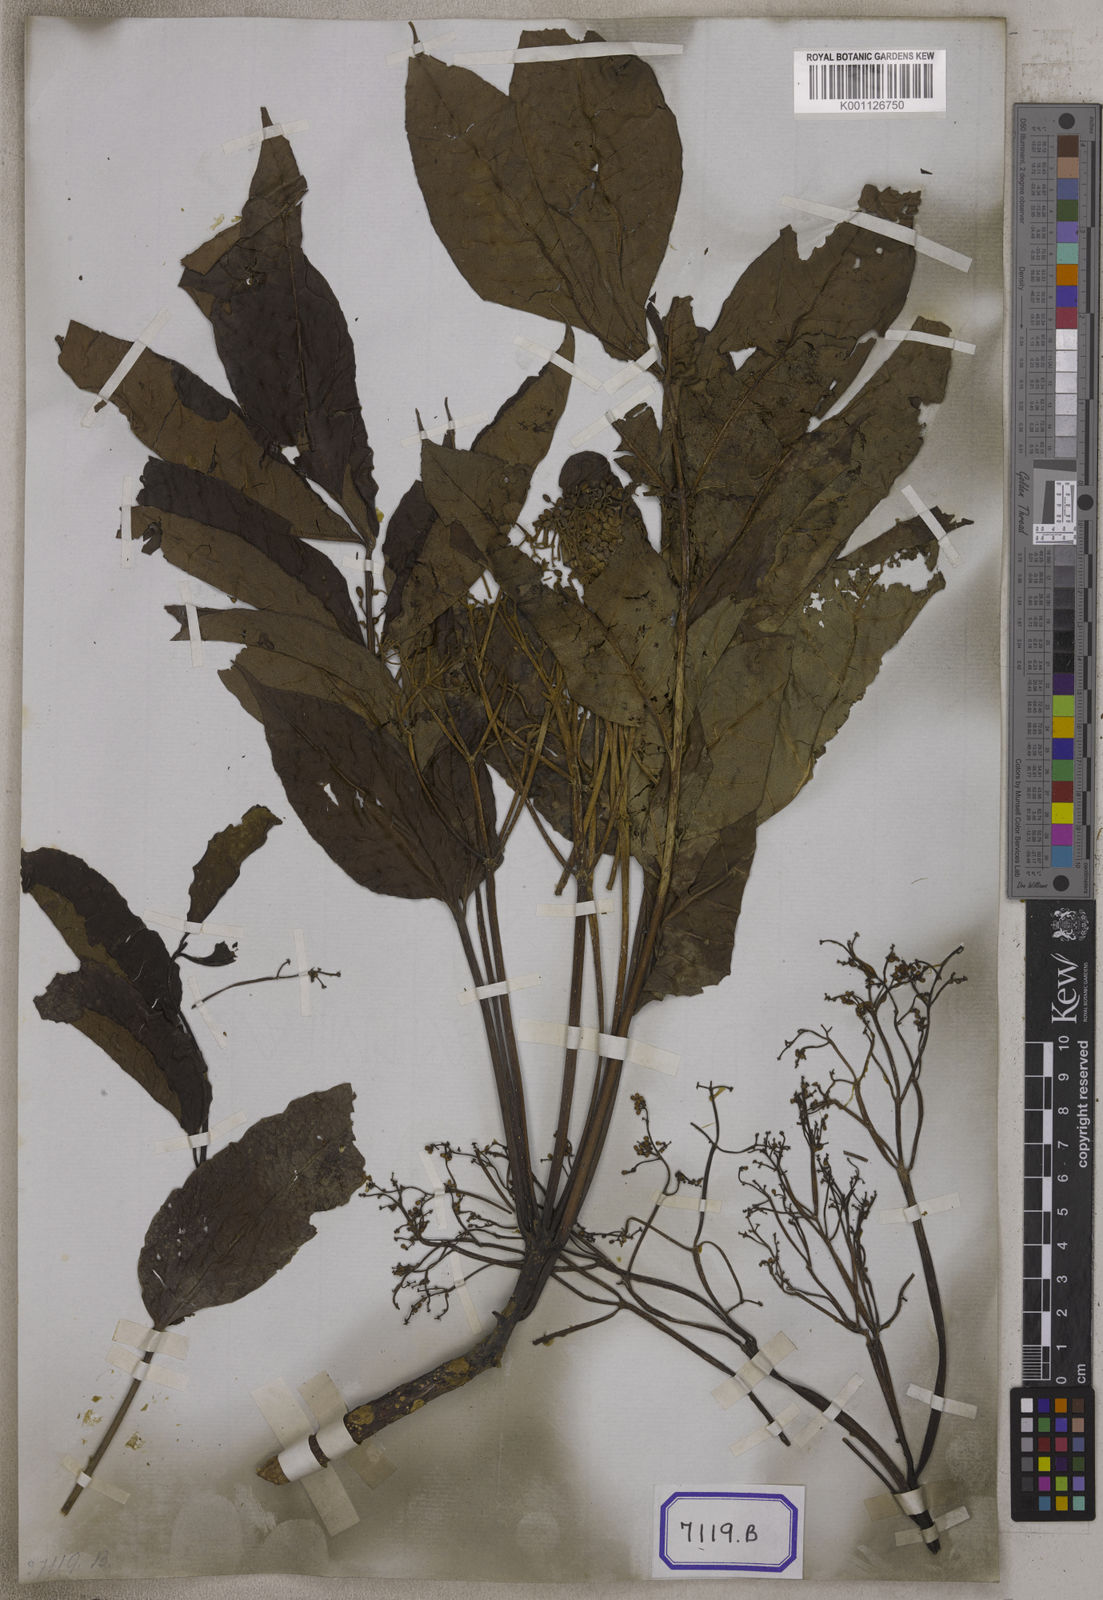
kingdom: Plantae
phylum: Tracheophyta
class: Magnoliopsida
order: Sapindales
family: Rutaceae
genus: Zanthoxylum
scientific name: Zanthoxylum rhetsa
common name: Indian ivy-rue
